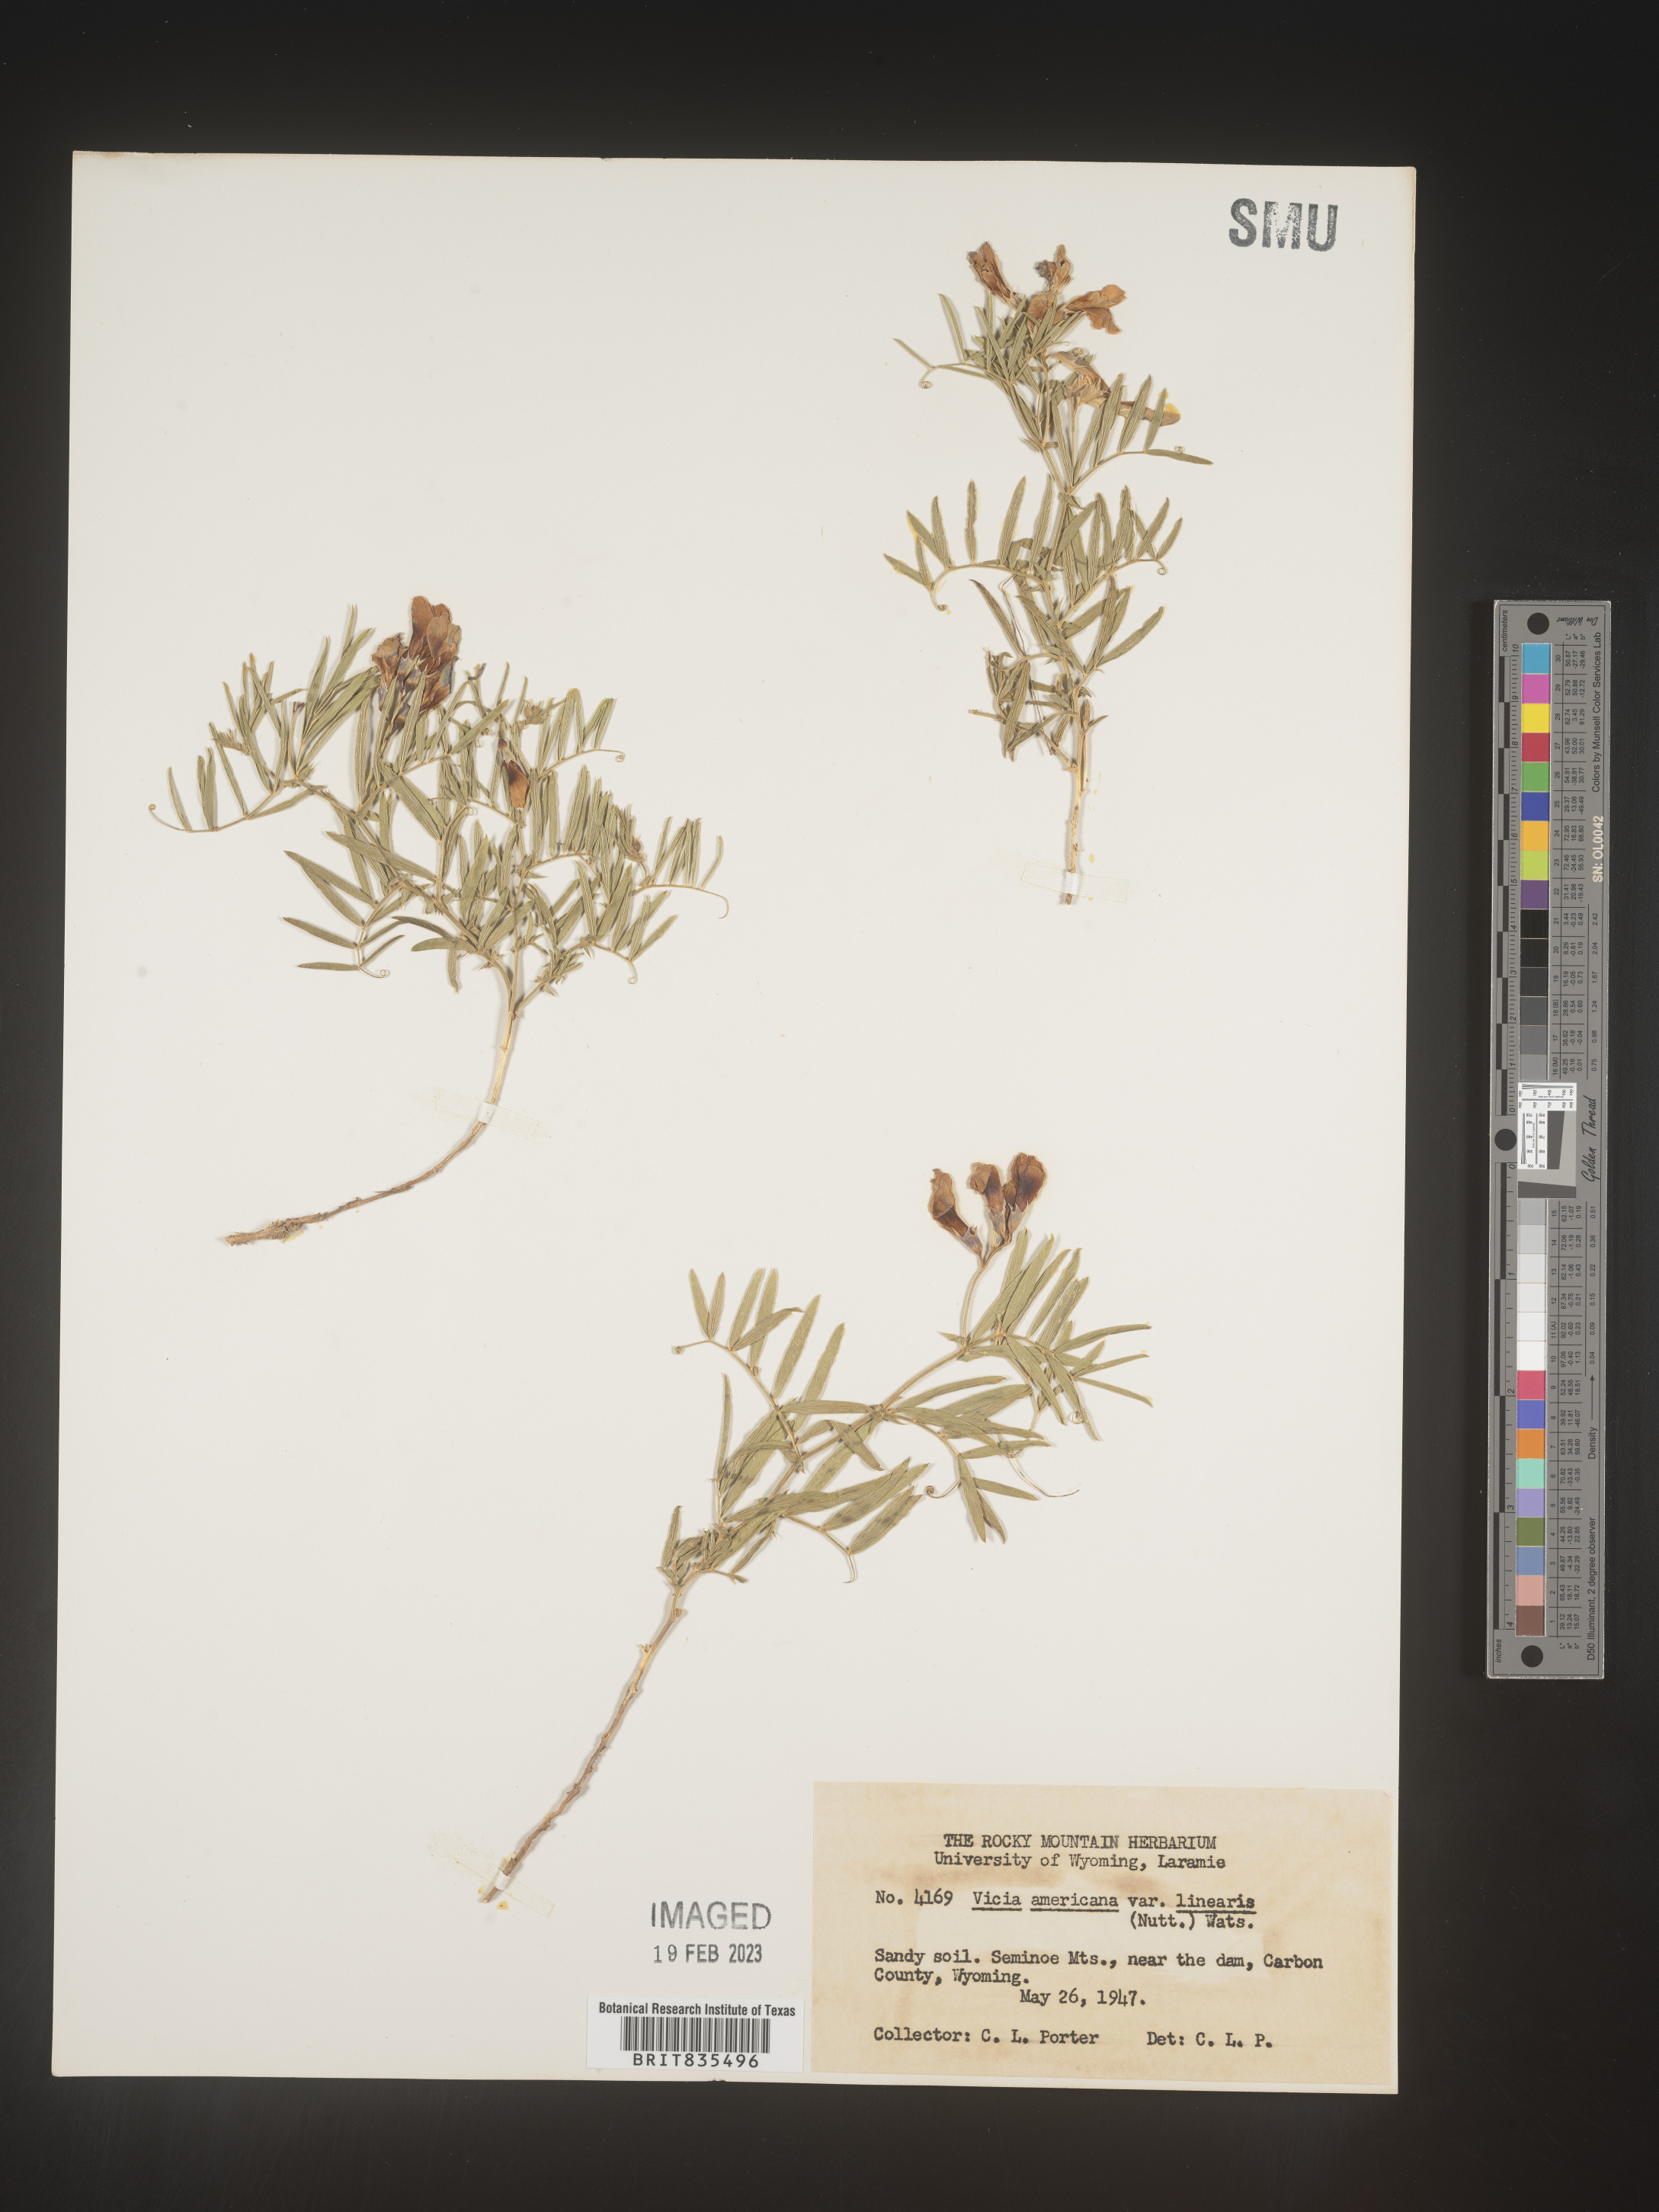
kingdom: Plantae
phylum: Tracheophyta
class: Magnoliopsida
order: Fabales
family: Fabaceae
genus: Vicia
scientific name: Vicia americana
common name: American vetch
